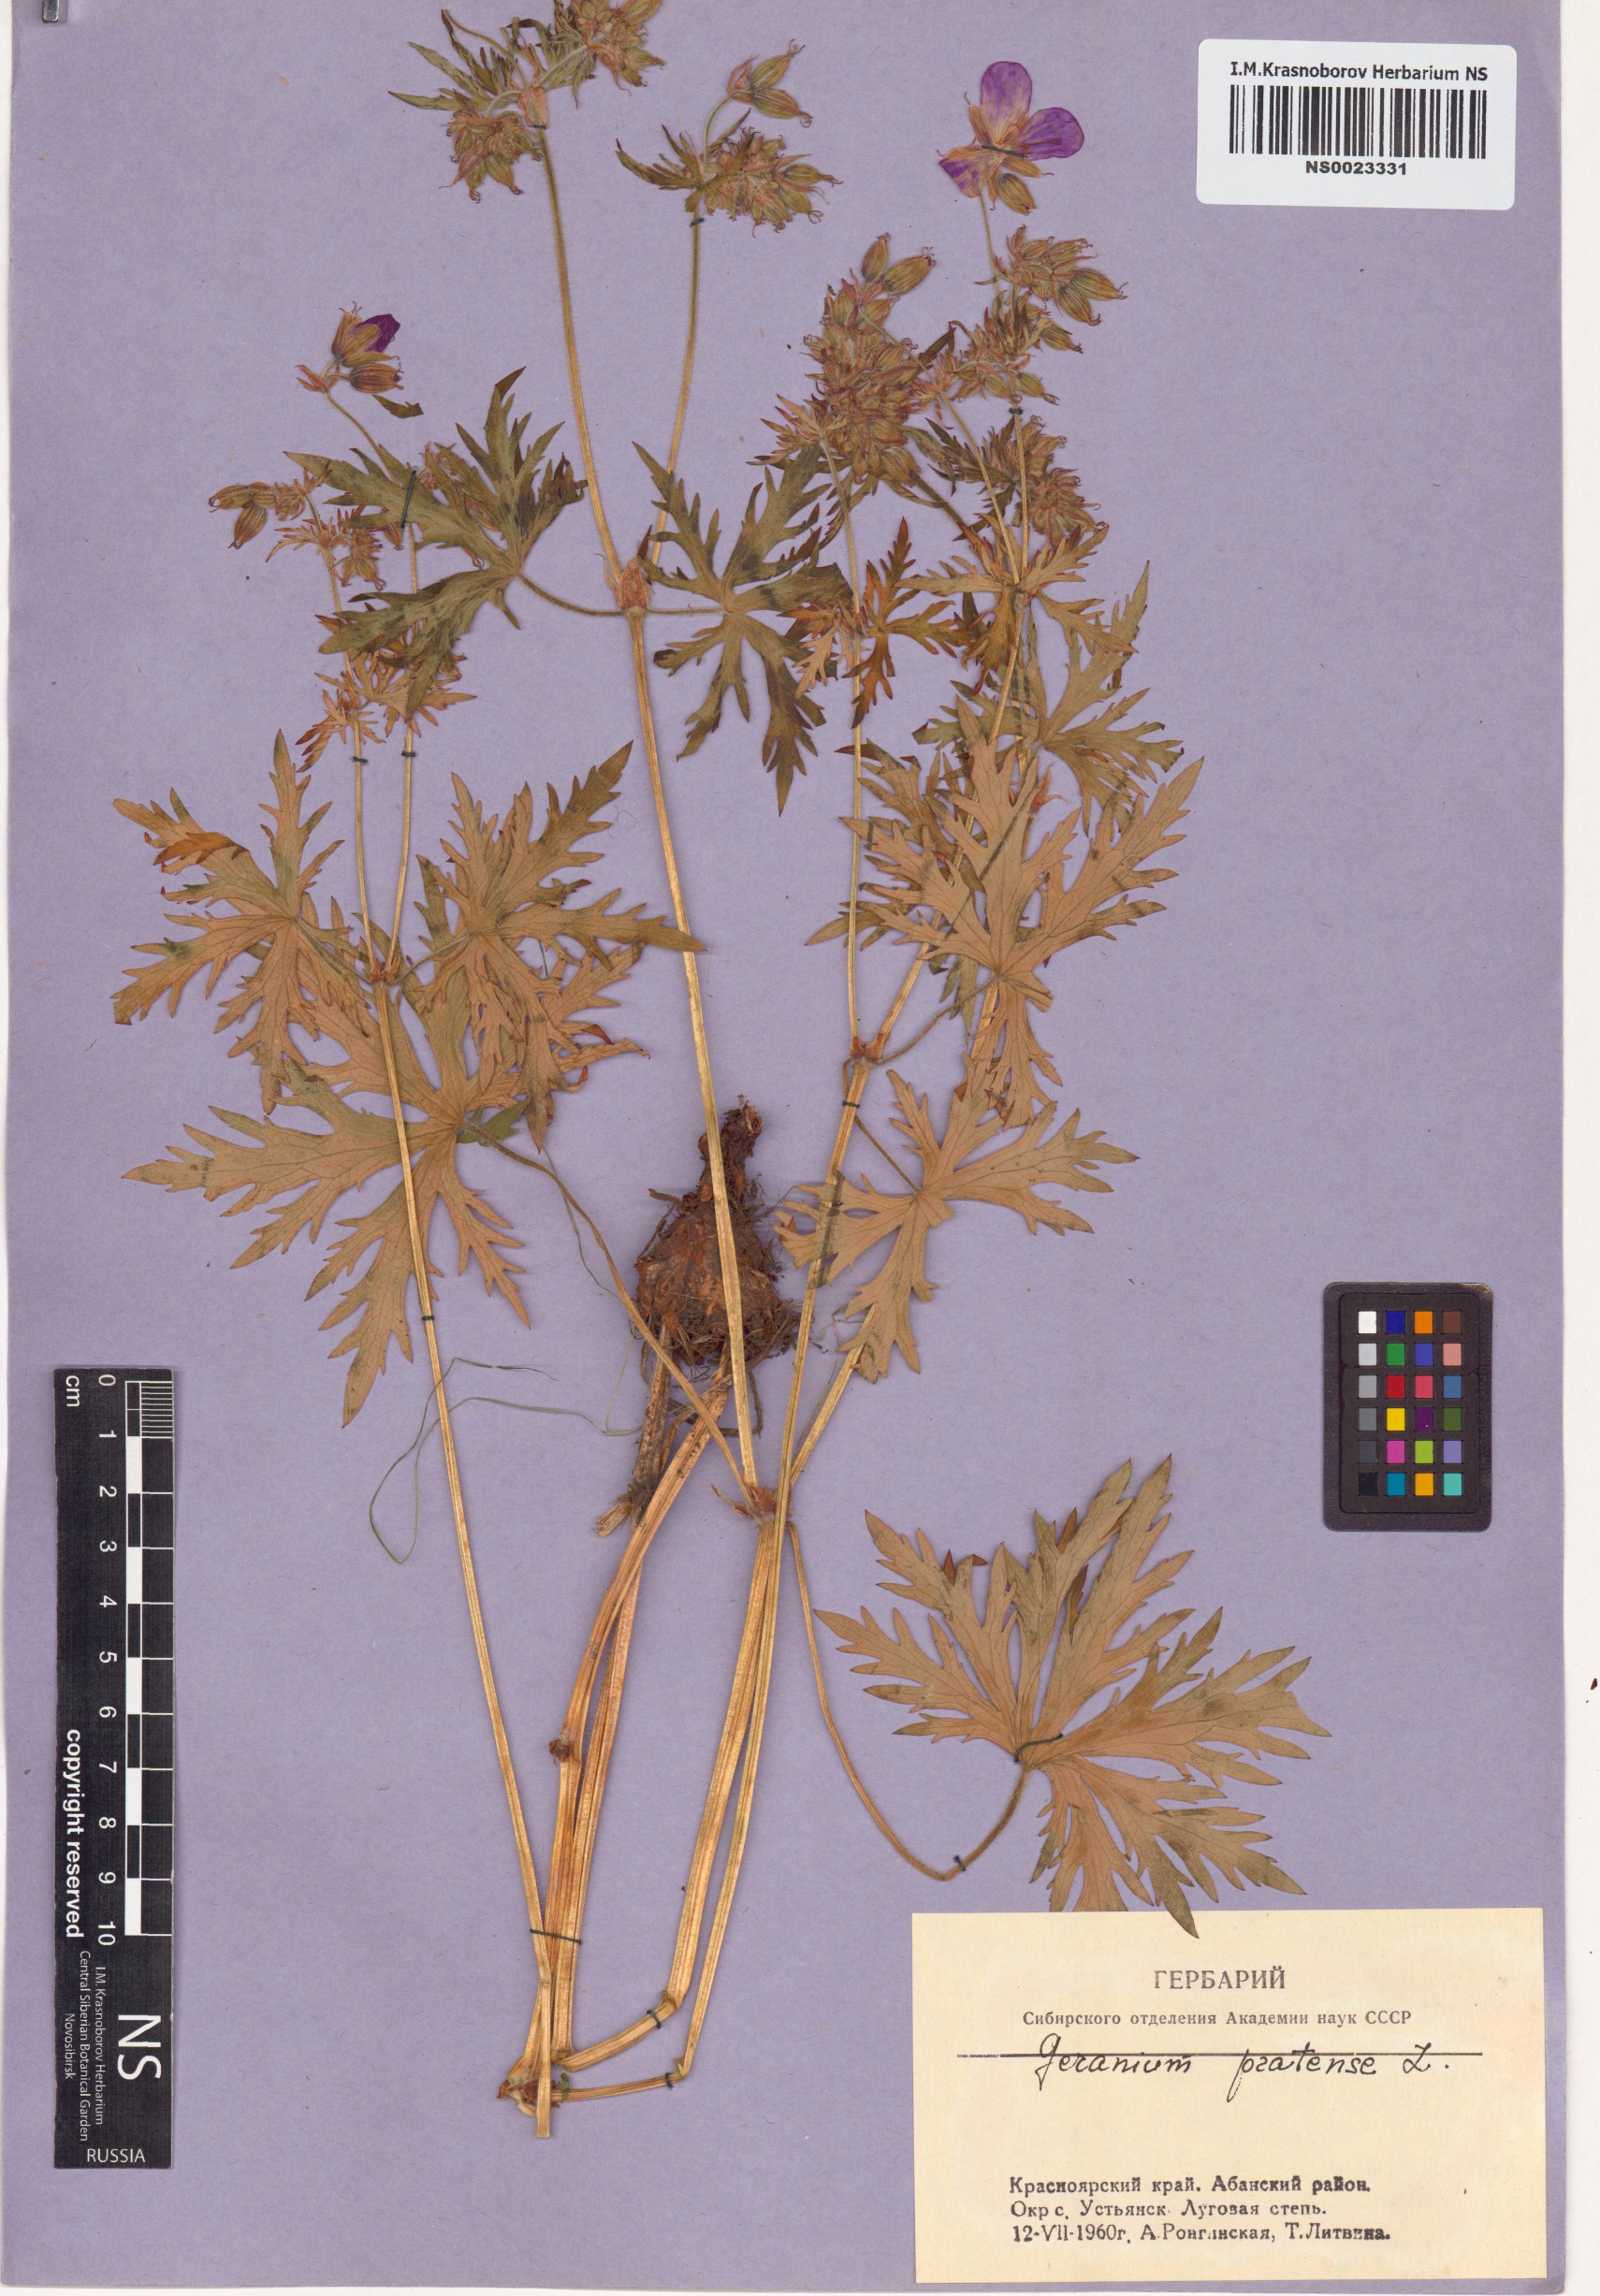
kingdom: Plantae
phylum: Tracheophyta
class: Magnoliopsida
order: Geraniales
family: Geraniaceae
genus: Geranium
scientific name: Geranium pratense
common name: Meadow crane's-bill
